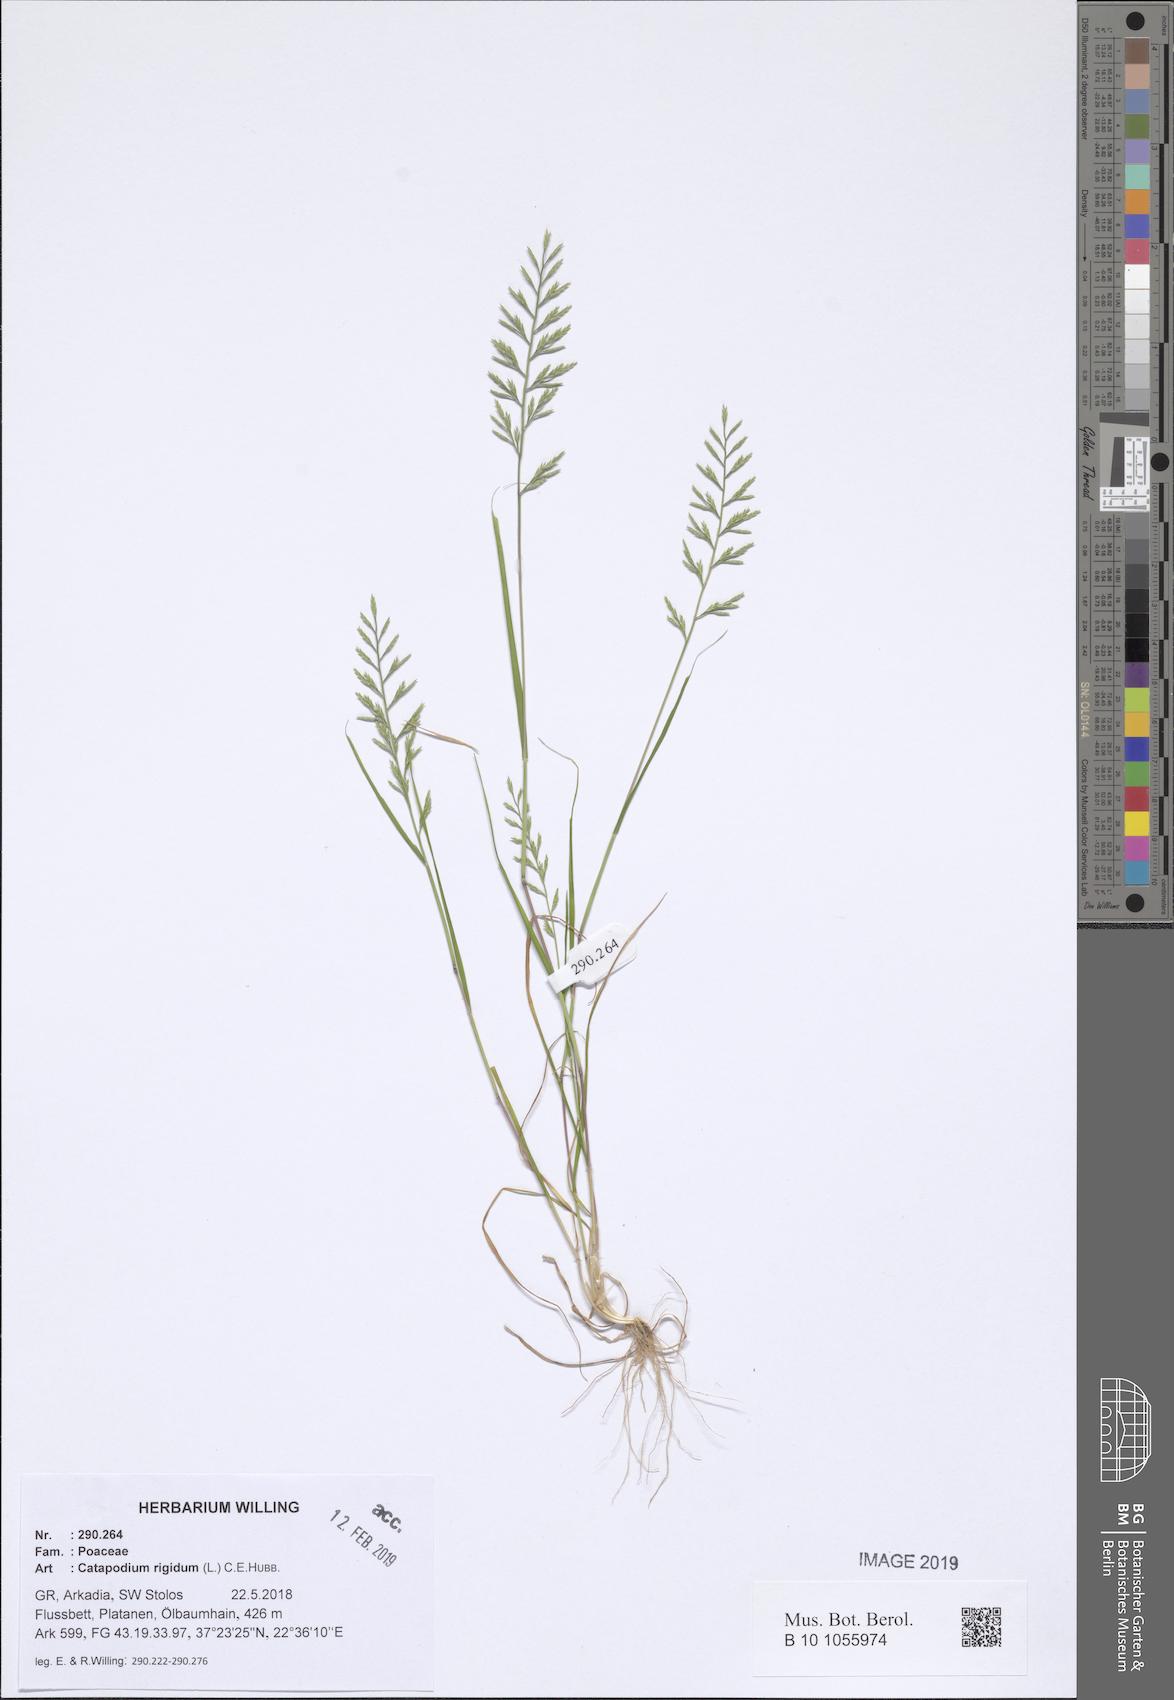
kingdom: Plantae
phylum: Tracheophyta
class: Liliopsida
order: Poales
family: Poaceae
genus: Catapodium
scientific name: Catapodium rigidum
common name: Fern-grass
